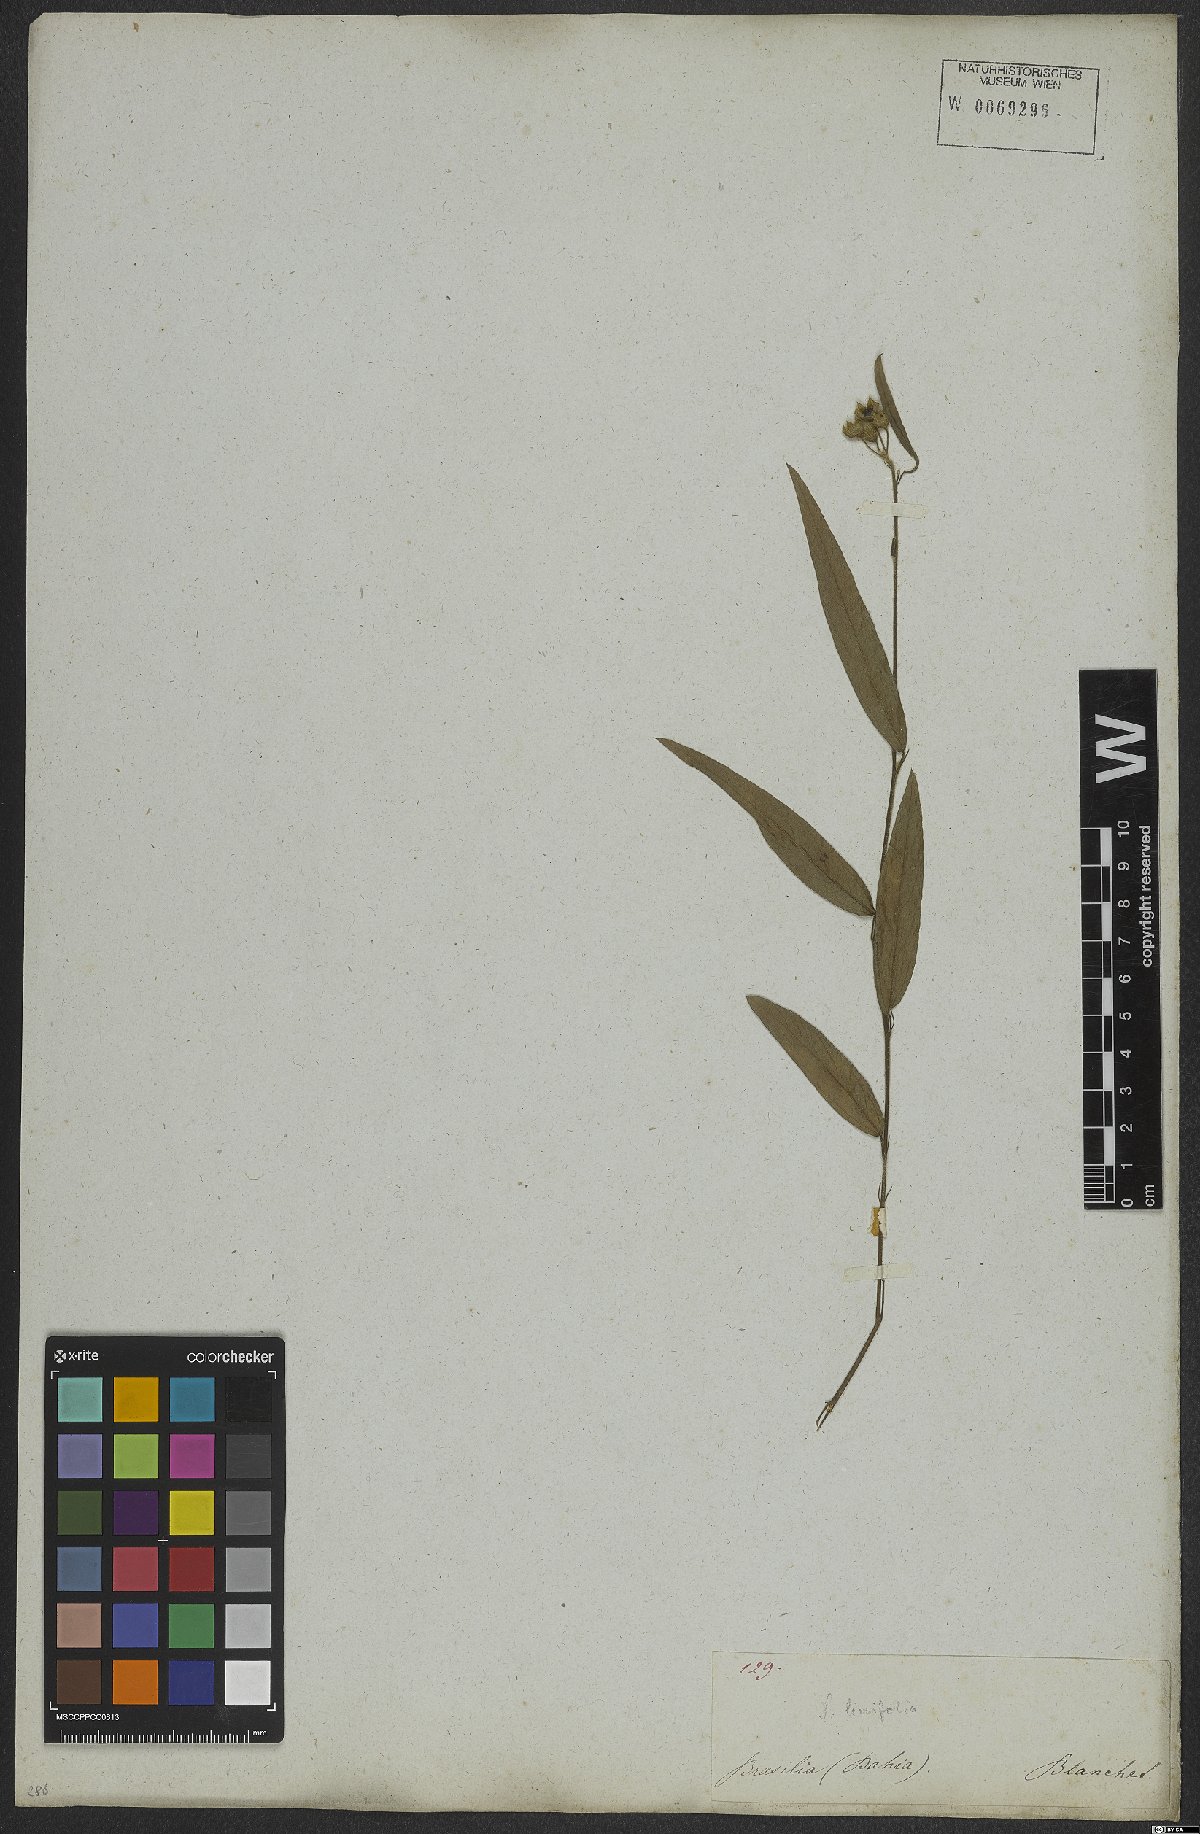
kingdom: Plantae
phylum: Tracheophyta
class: Magnoliopsida
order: Malvales
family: Malvaceae
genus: Sida
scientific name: Sida linifolia
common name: Flaxleaf fanpetals
